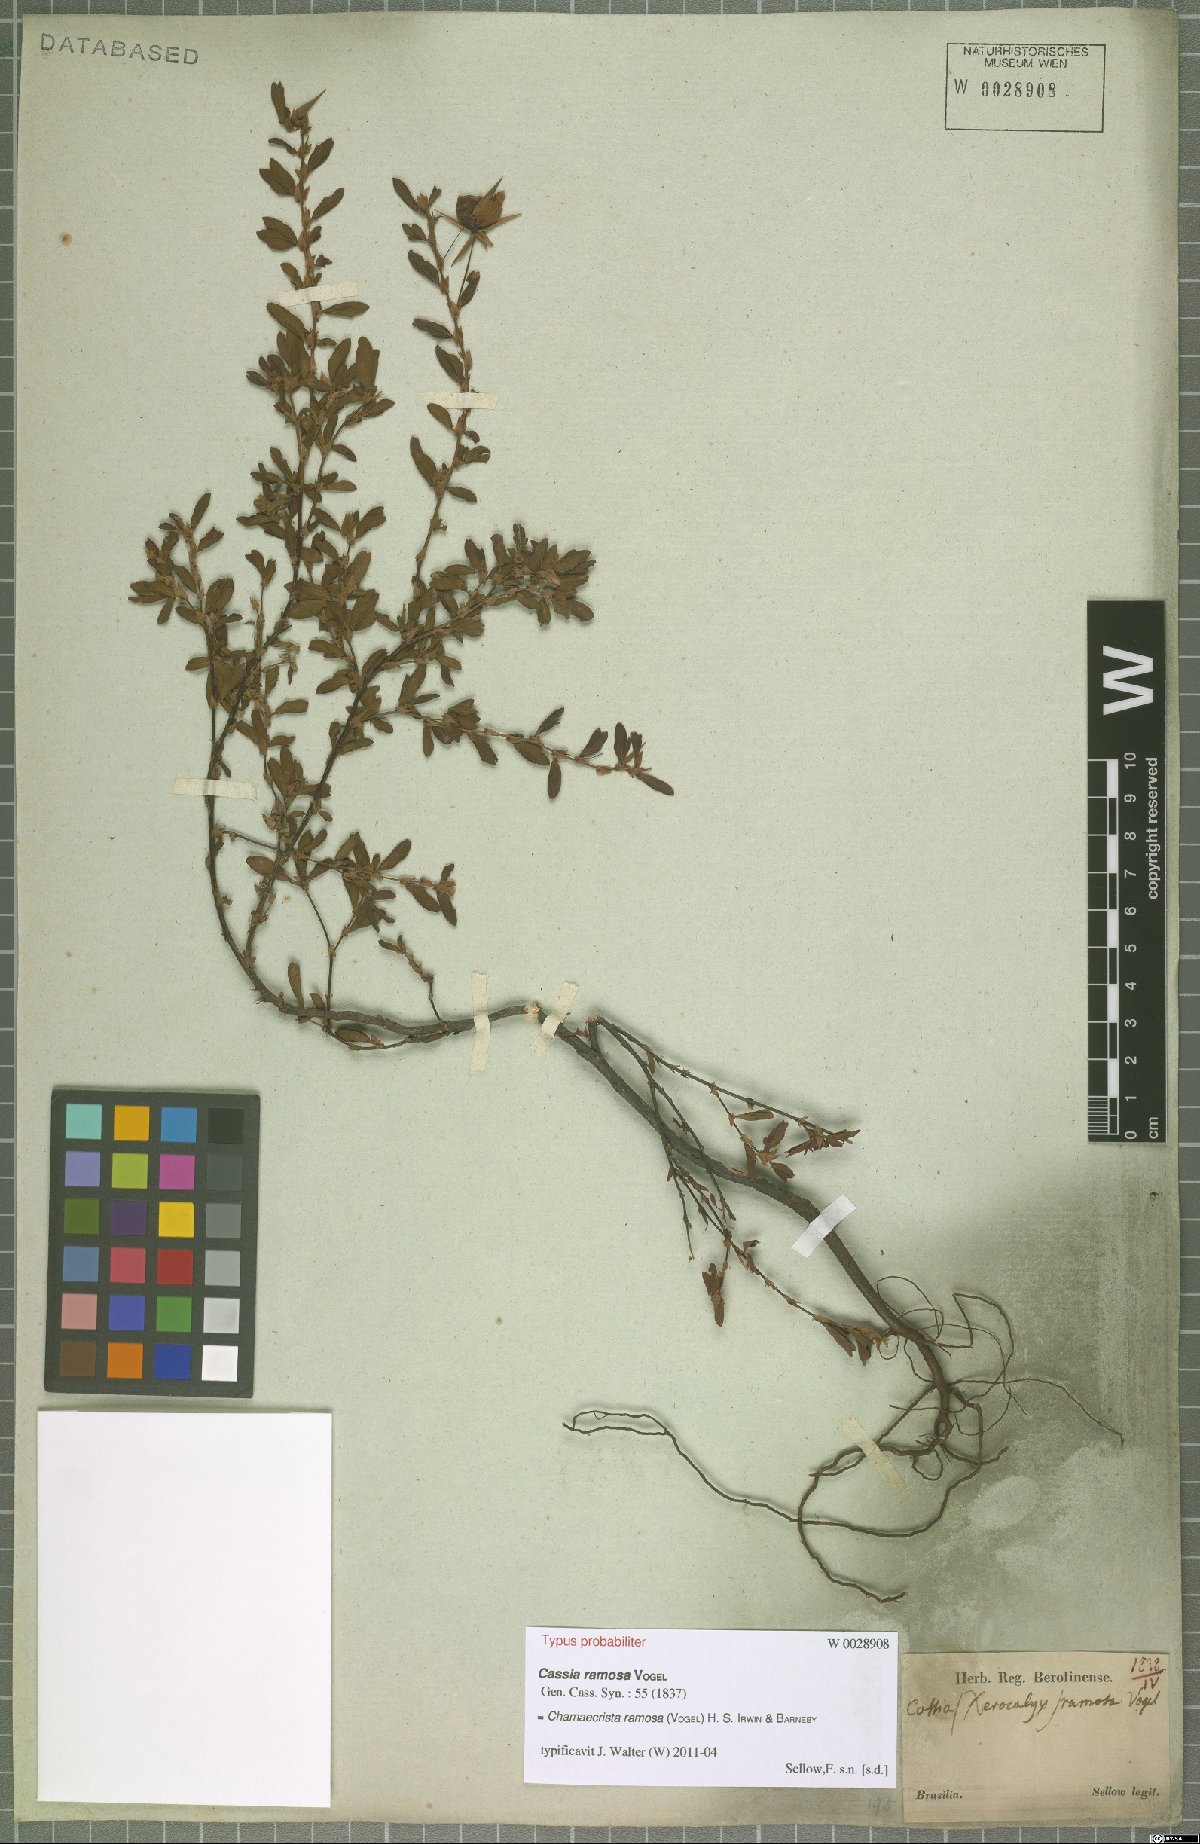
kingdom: Plantae
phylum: Tracheophyta
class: Magnoliopsida
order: Fabales
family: Fabaceae
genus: Chamaecrista
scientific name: Chamaecrista ramosa
